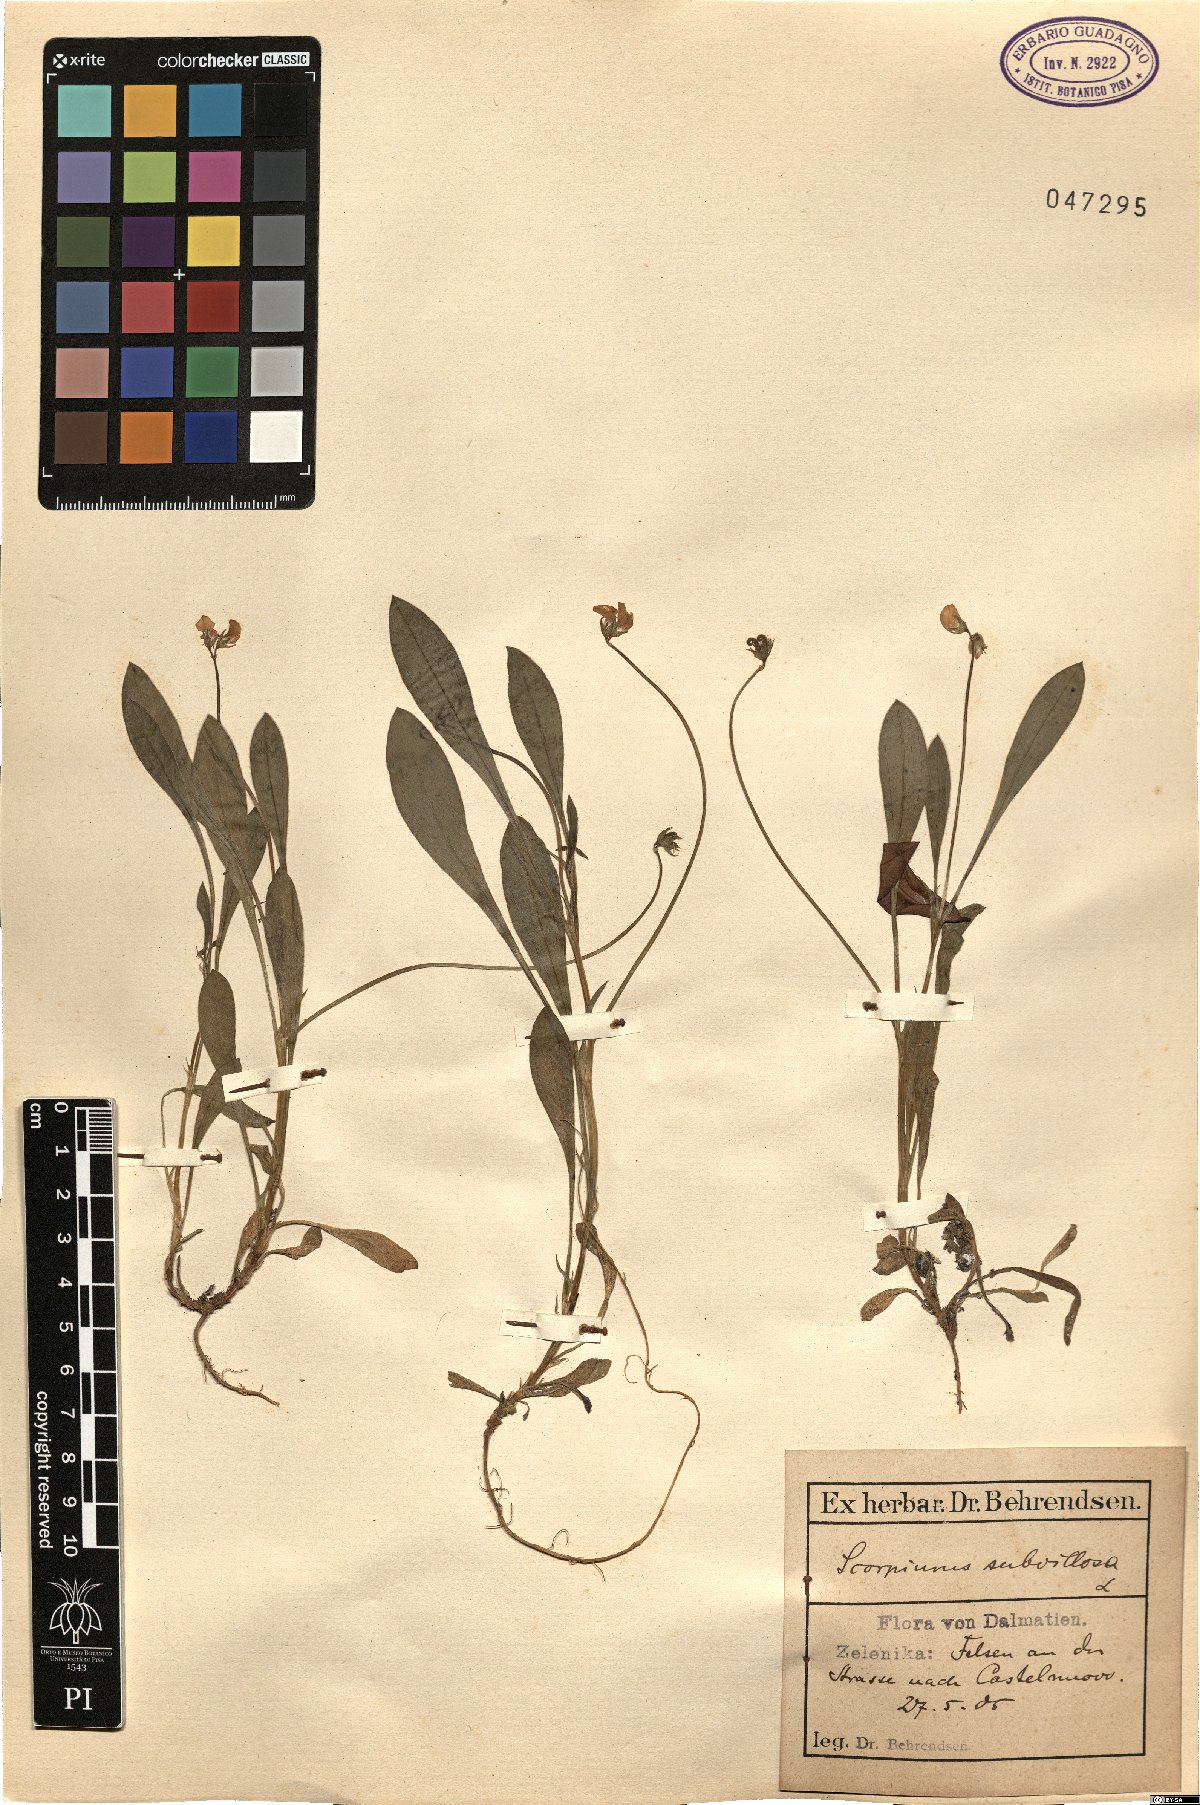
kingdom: Plantae
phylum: Tracheophyta
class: Magnoliopsida
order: Fabales
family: Fabaceae
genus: Scorpiurus
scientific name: Scorpiurus muricatus
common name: Caterpillar-plant
